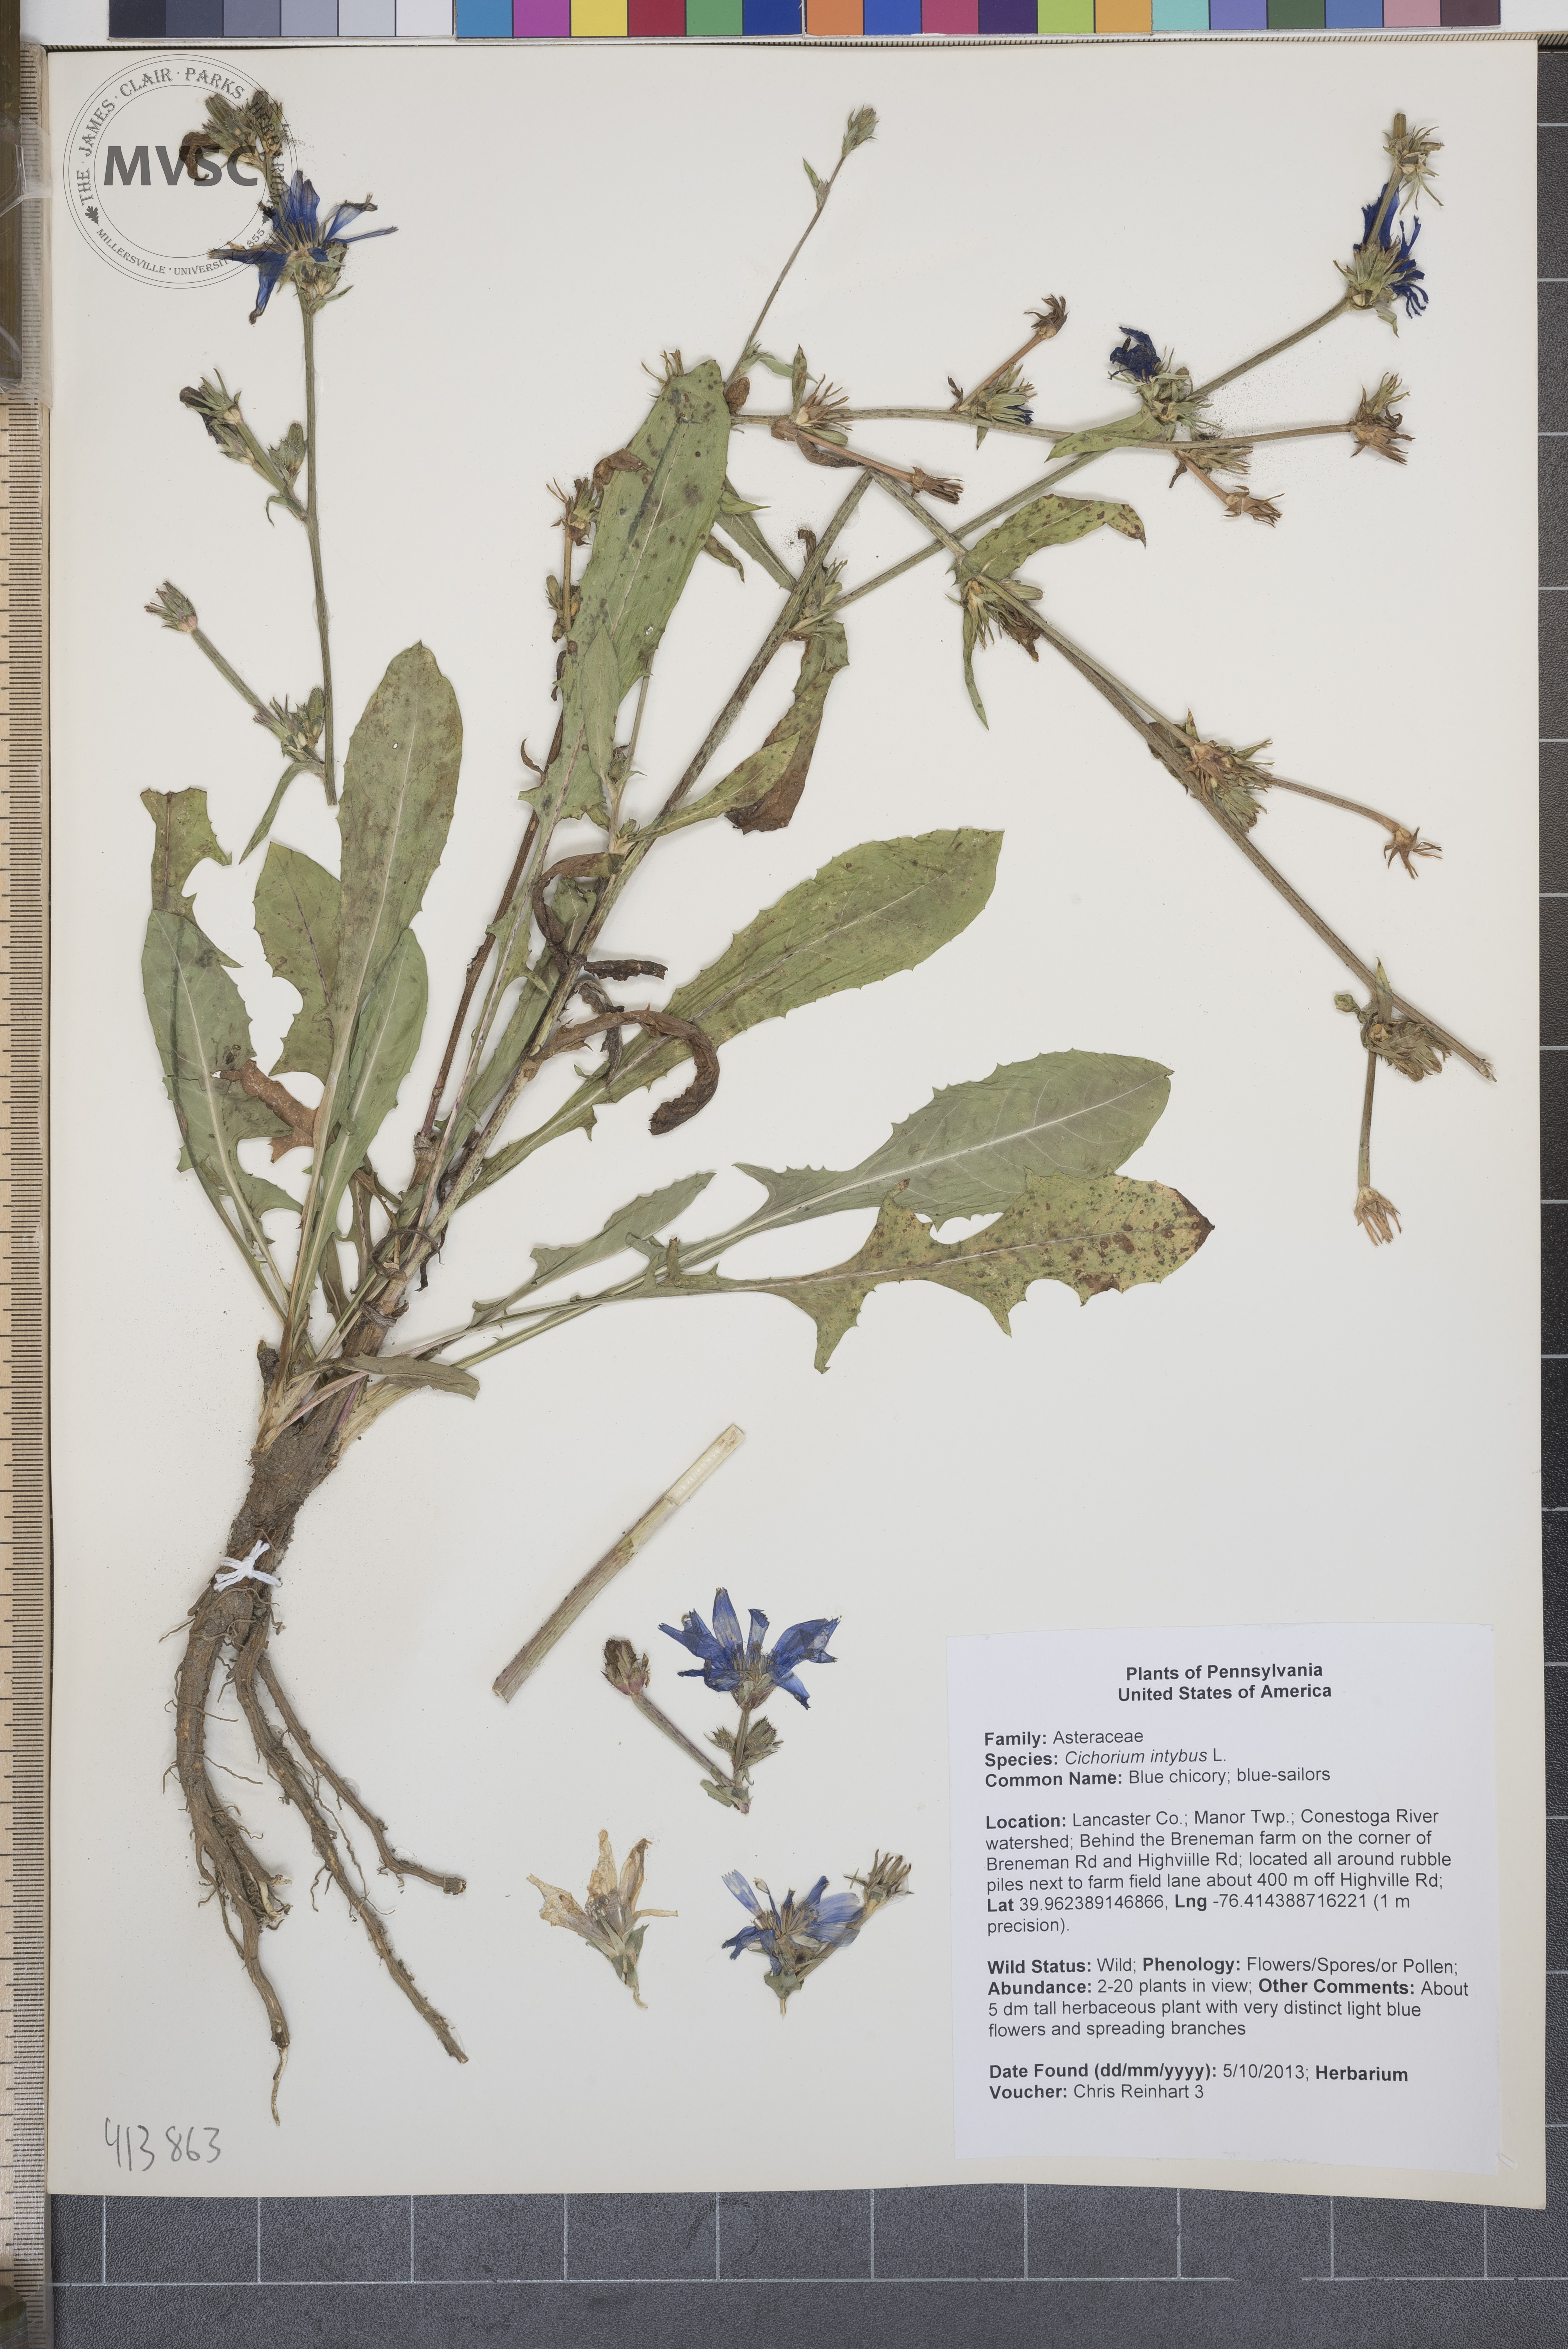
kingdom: Plantae
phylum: Tracheophyta
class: Magnoliopsida
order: Asterales
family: Asteraceae
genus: Cichorium
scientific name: Cichorium intybus
